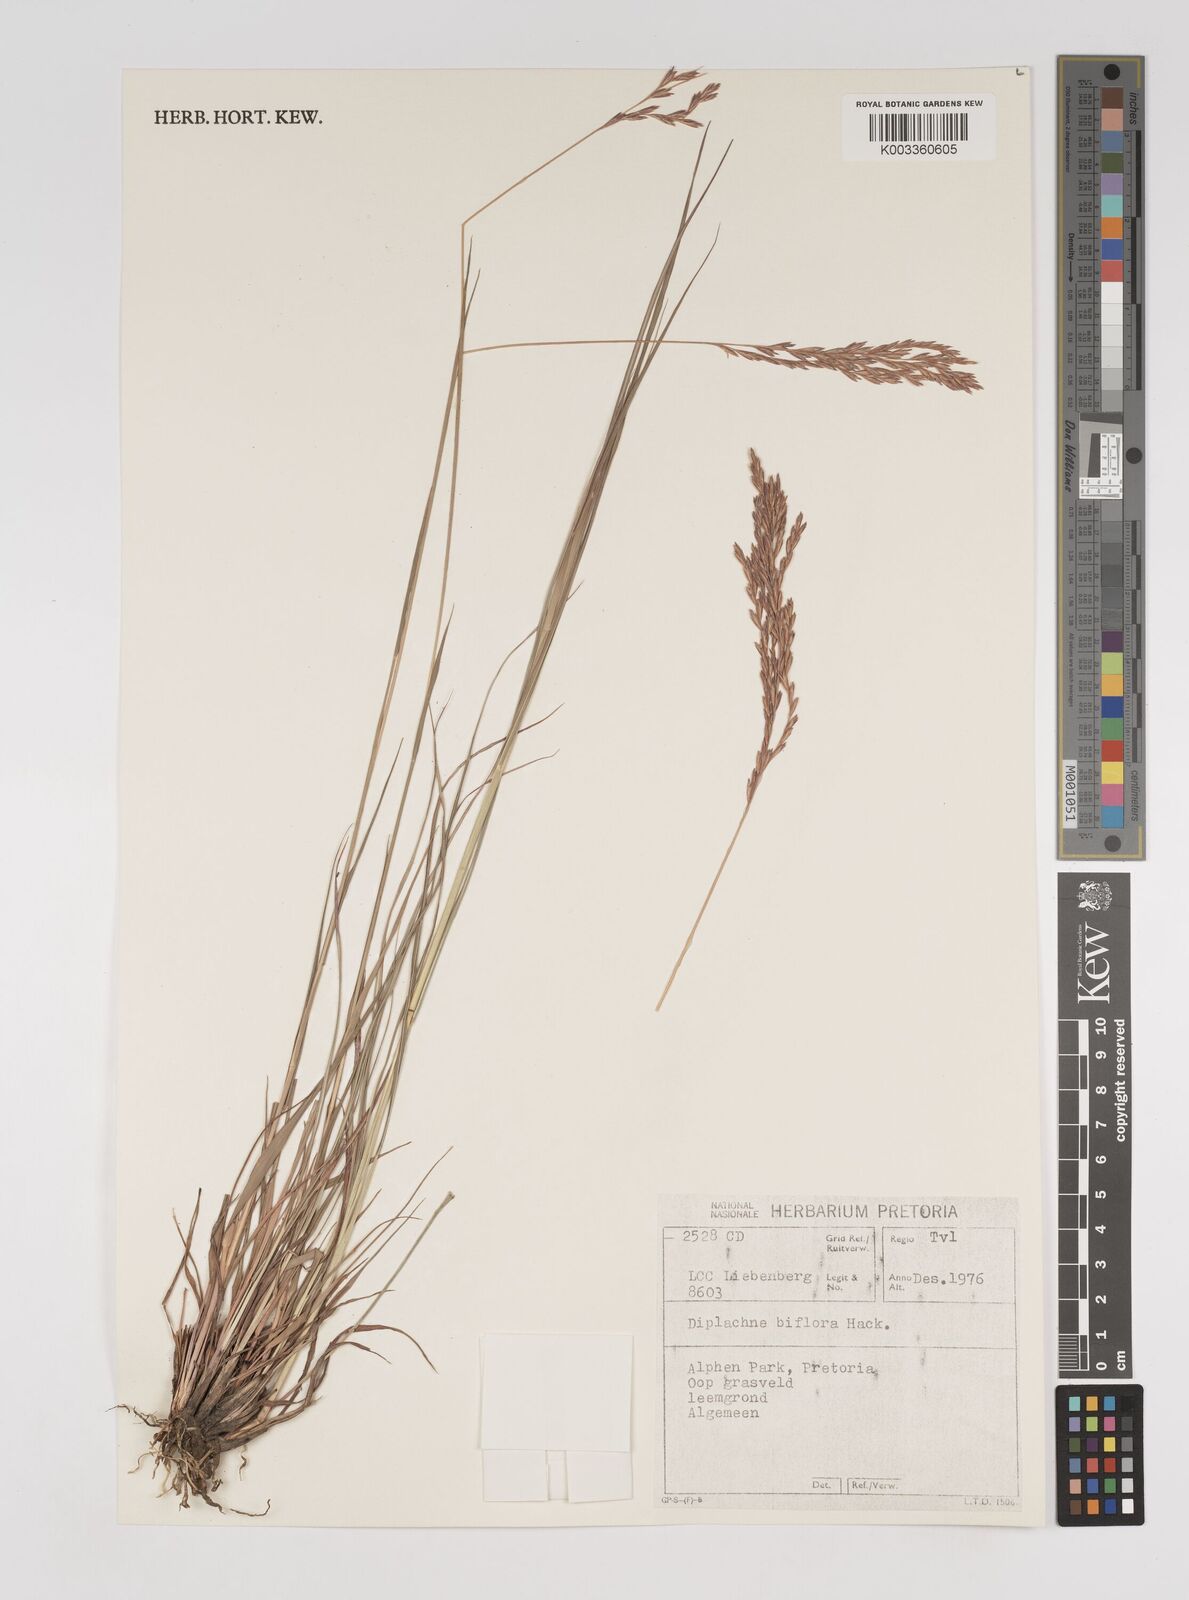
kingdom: Plantae
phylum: Tracheophyta
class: Liliopsida
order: Poales
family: Poaceae
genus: Bewsia
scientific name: Bewsia biflora
